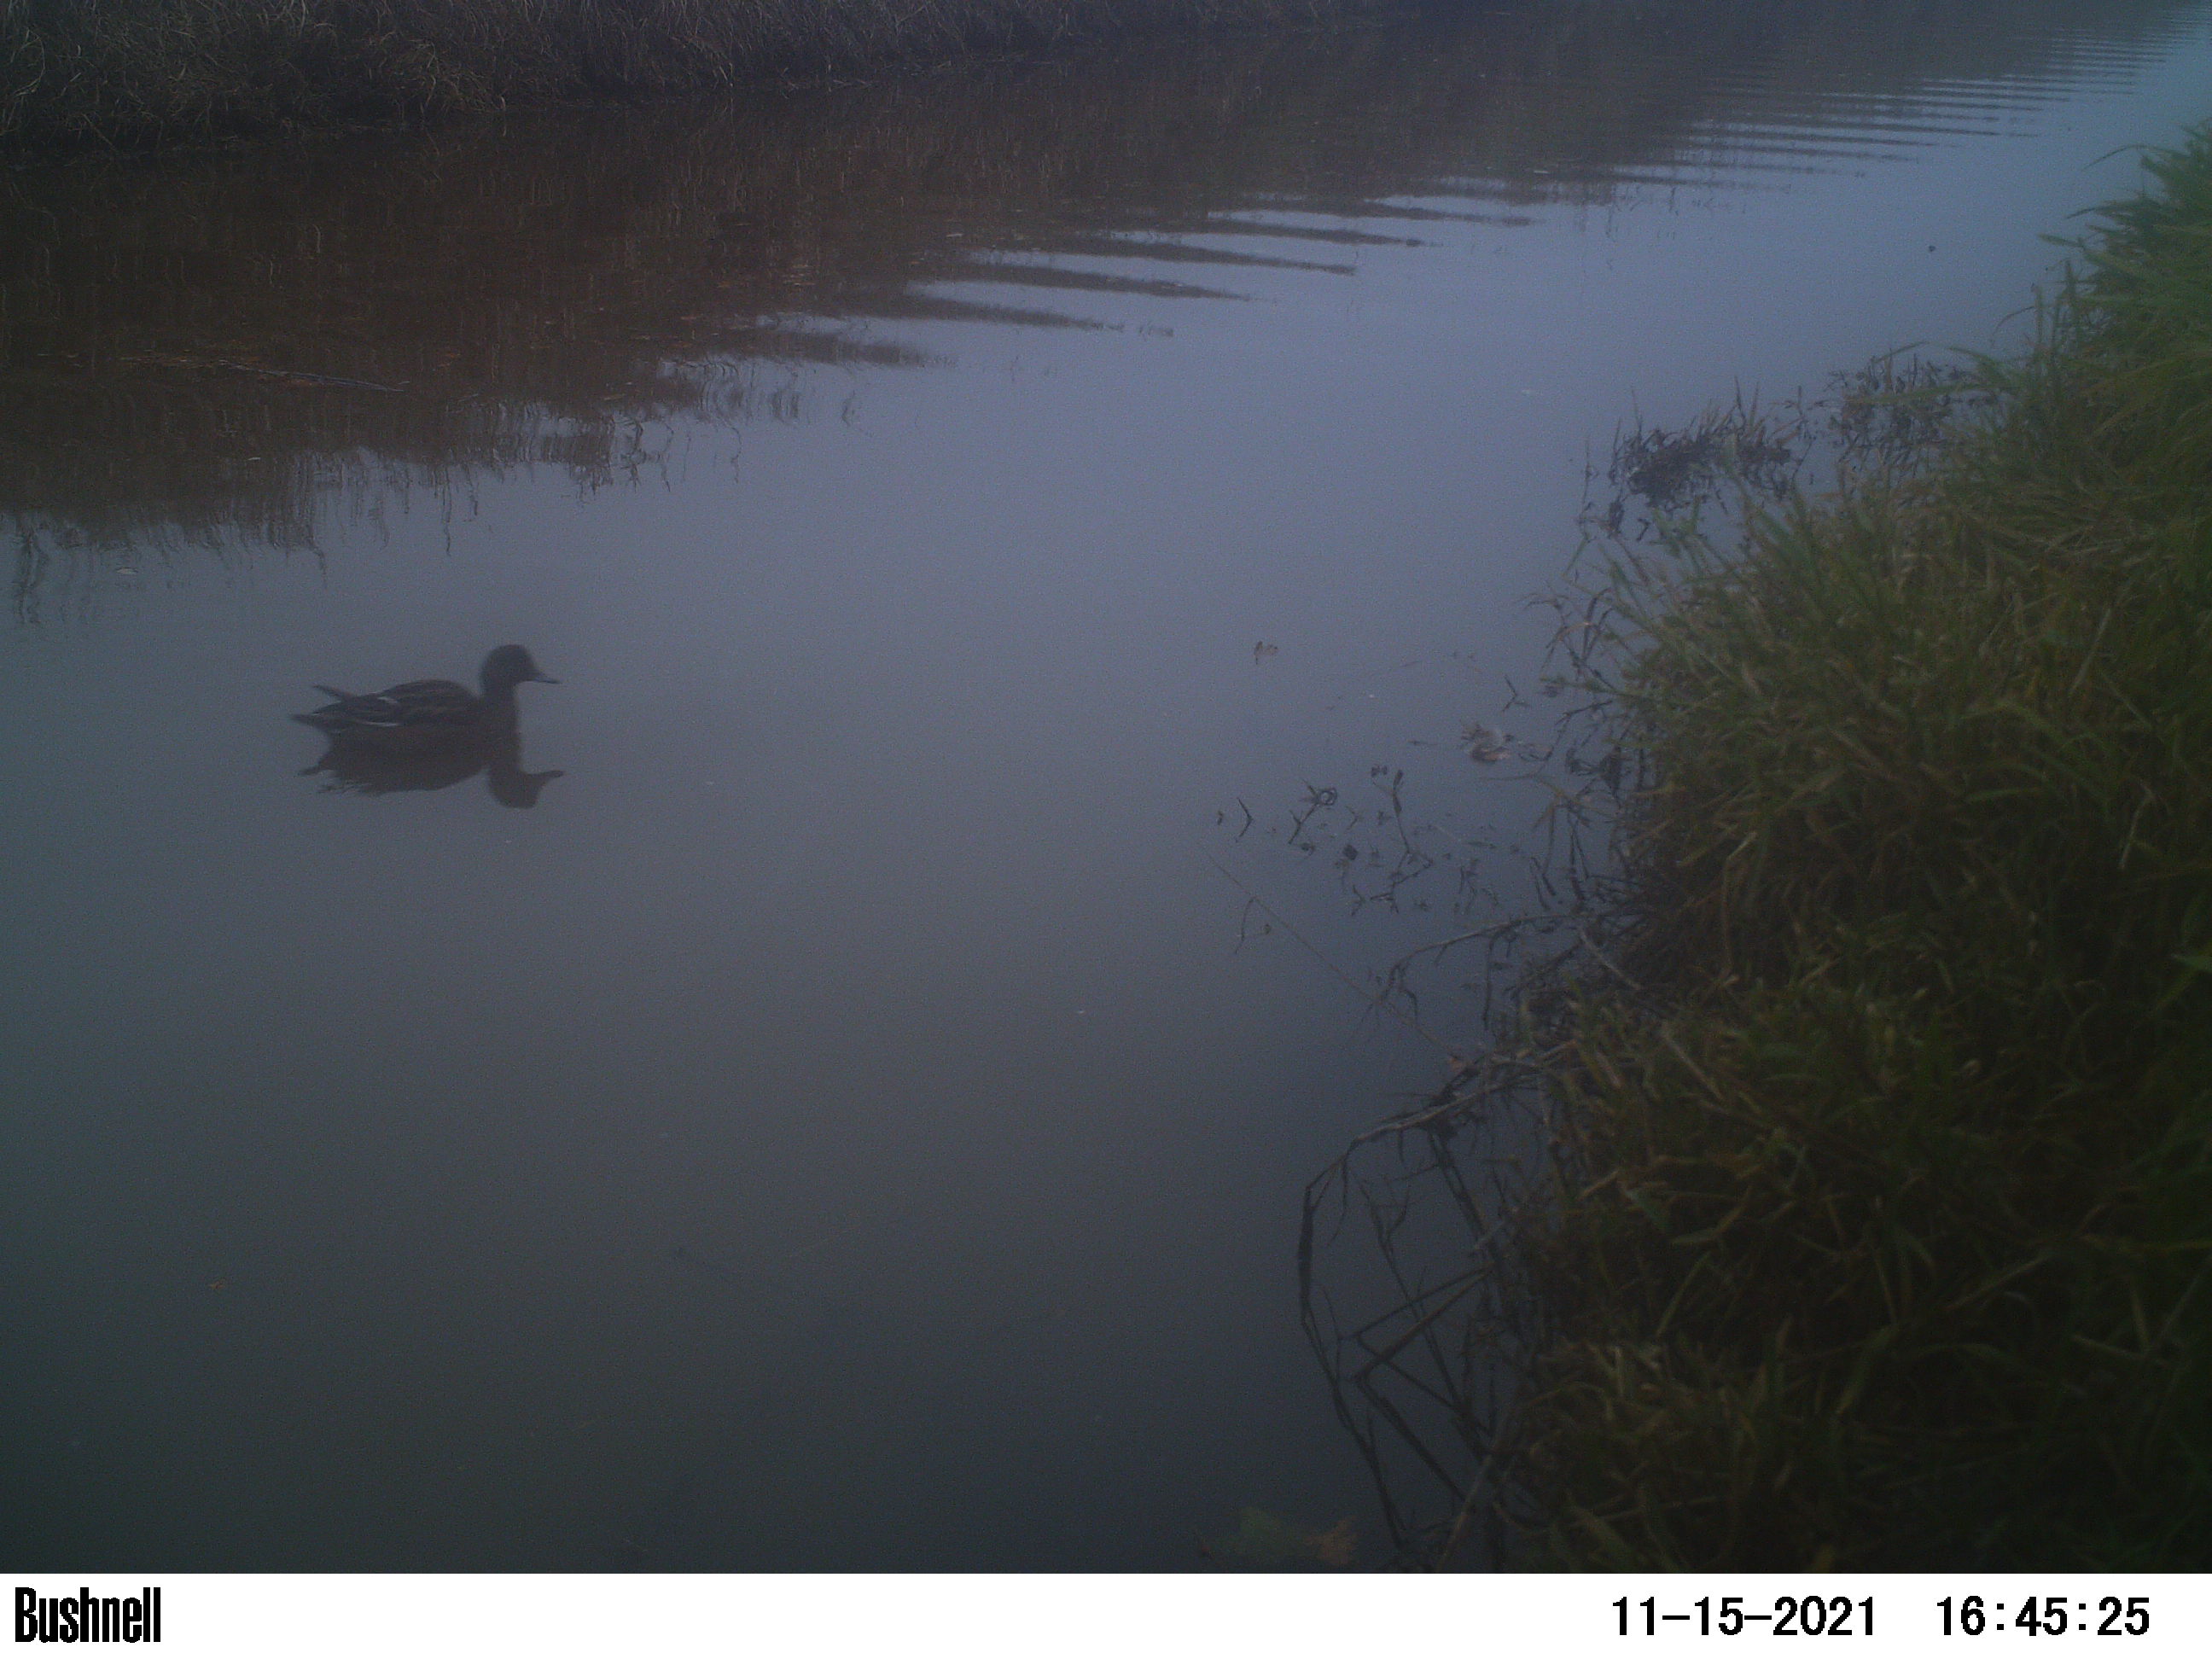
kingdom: Animalia
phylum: Chordata
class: Aves
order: Anseriformes
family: Anatidae
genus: Anas
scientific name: Anas
